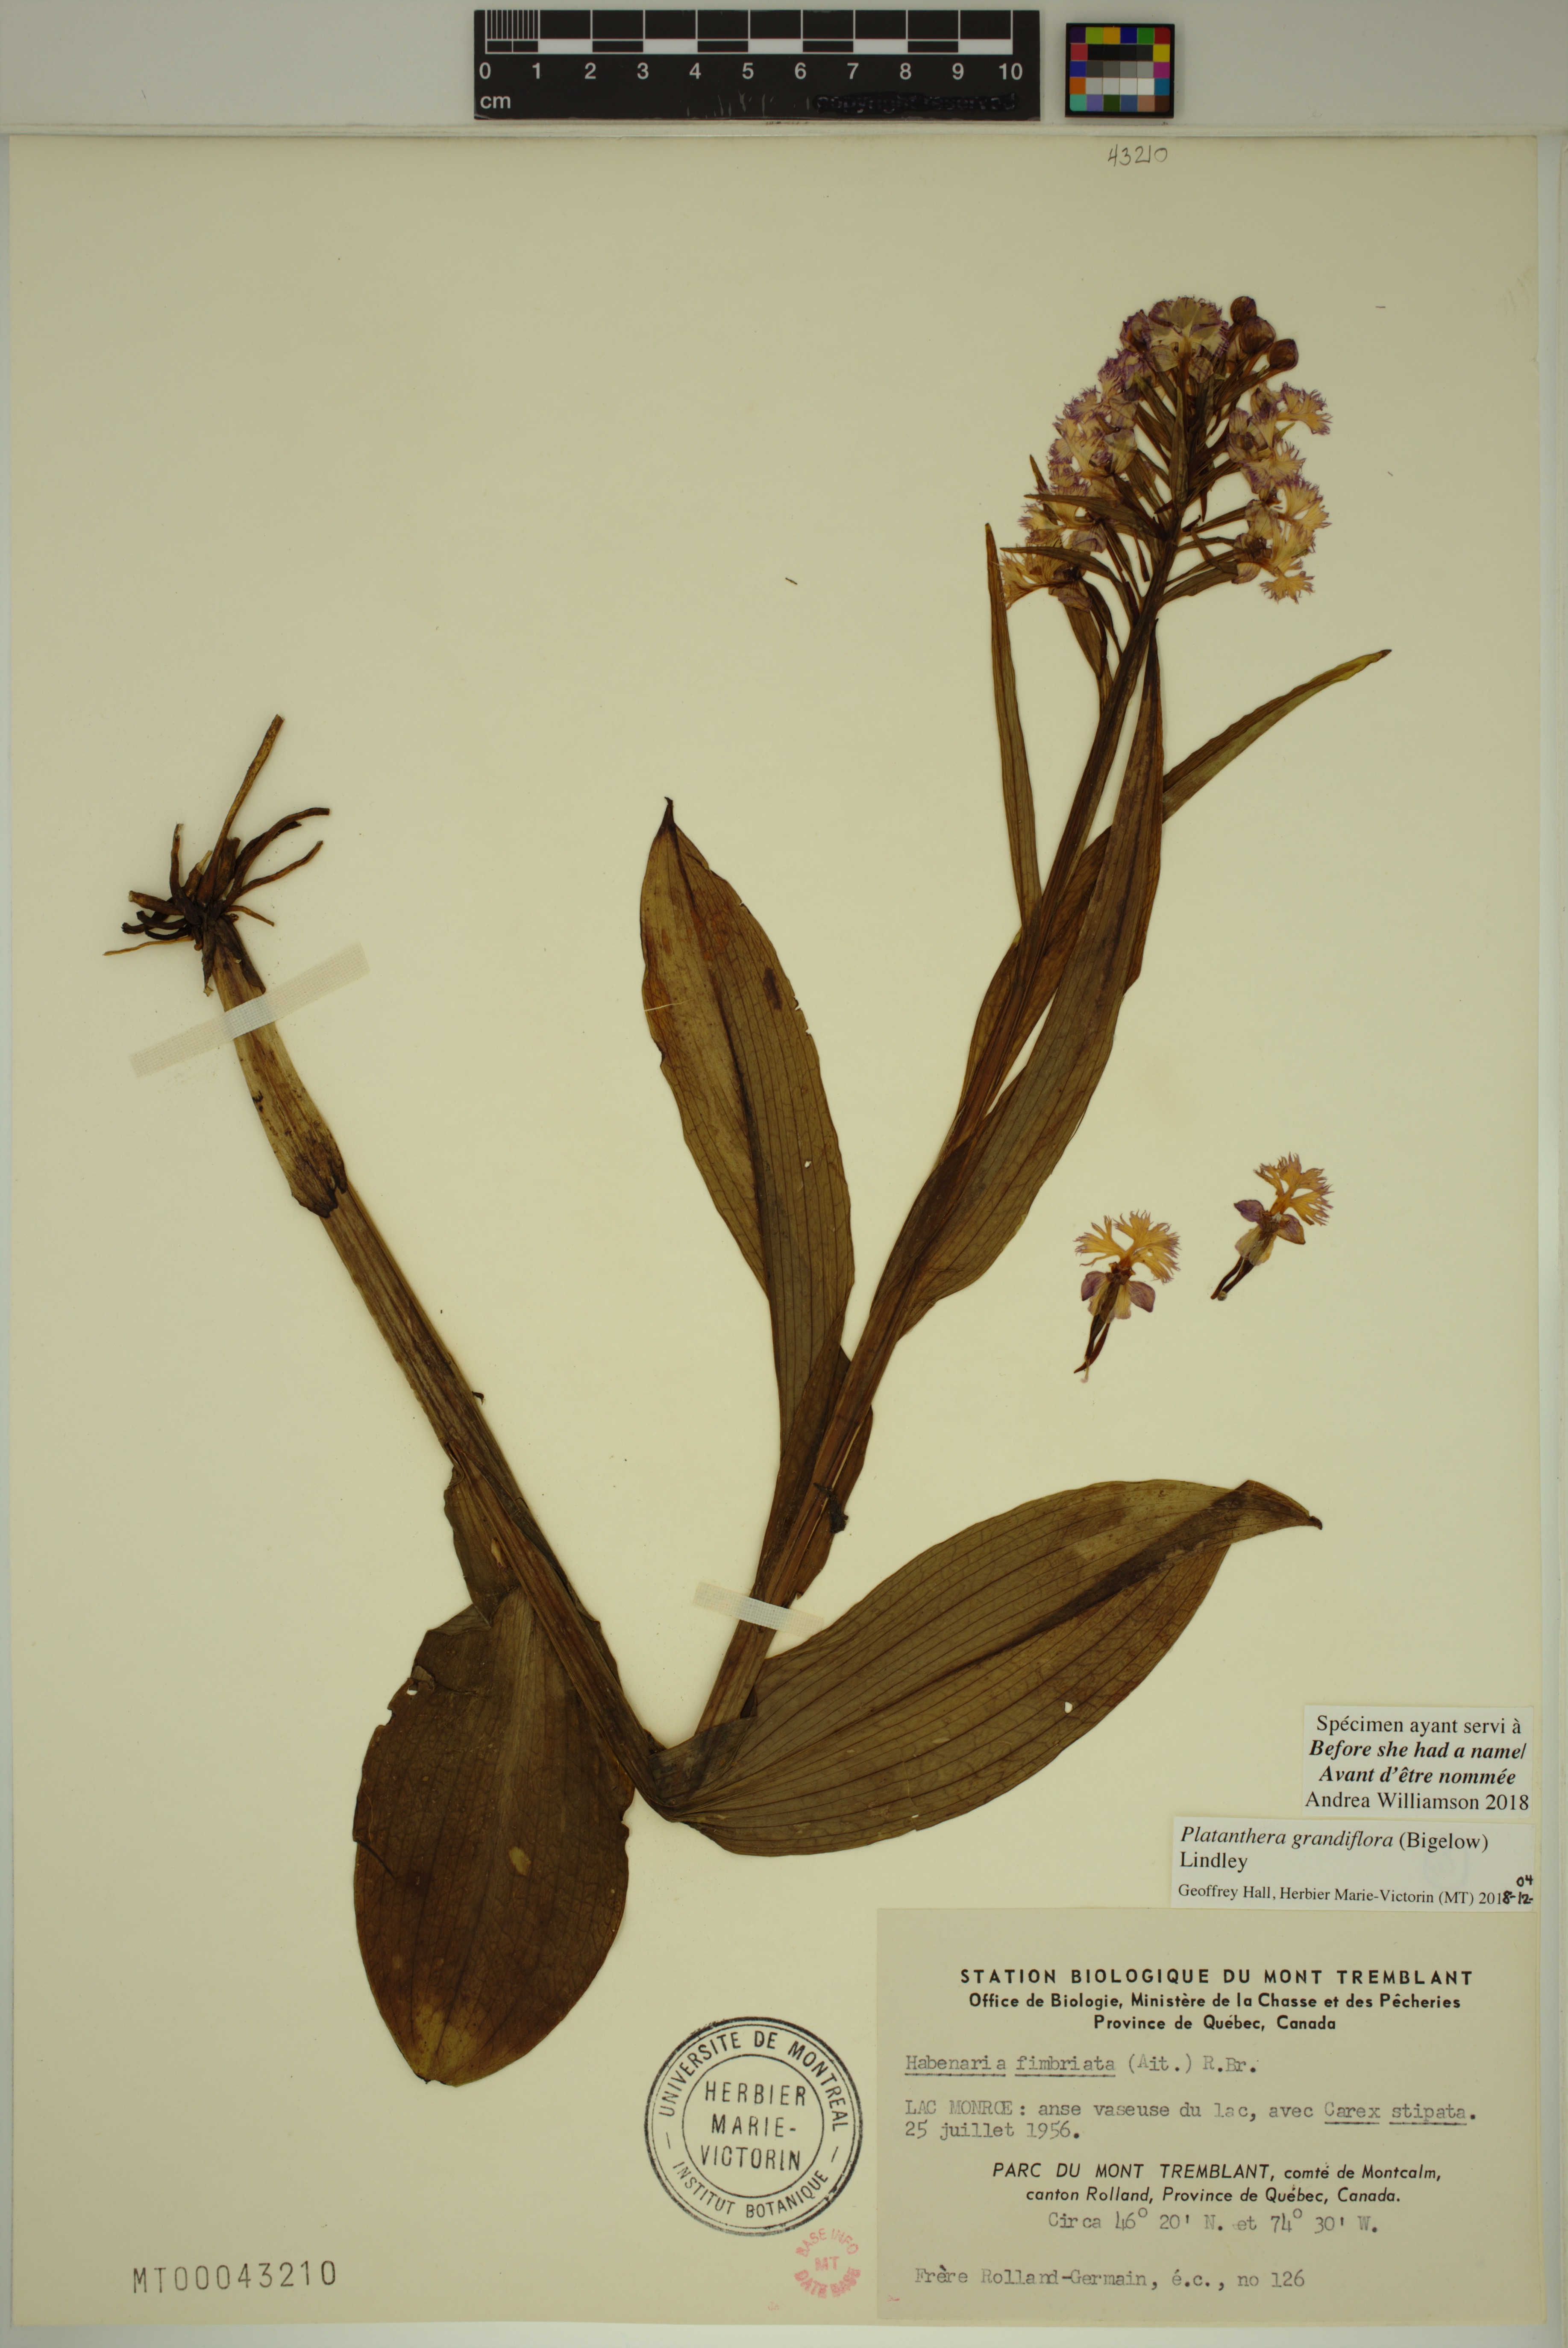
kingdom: Plantae
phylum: Tracheophyta
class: Liliopsida
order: Asparagales
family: Orchidaceae
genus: Platanthera
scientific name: Platanthera grandiflora
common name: Greater purple fringed orchid
